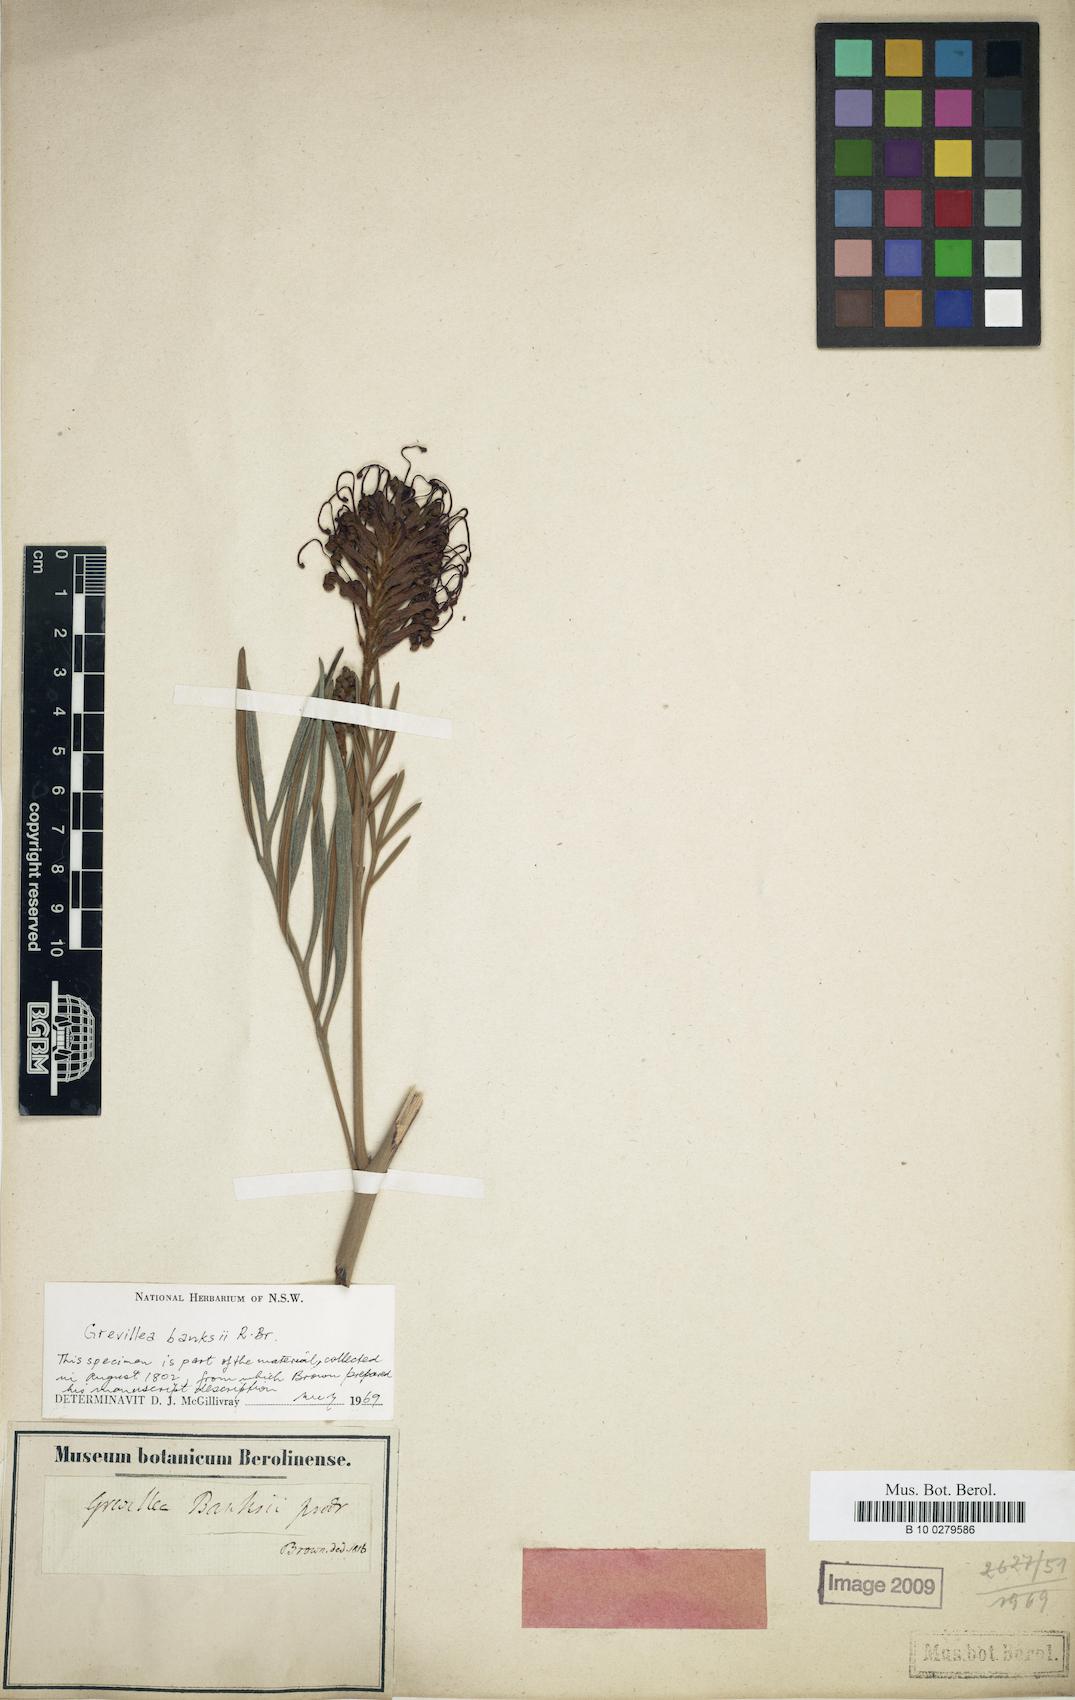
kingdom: Plantae
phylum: Tracheophyta
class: Magnoliopsida
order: Proteales
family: Proteaceae
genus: Grevillea
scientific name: Grevillea banksii
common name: Kahili flower
